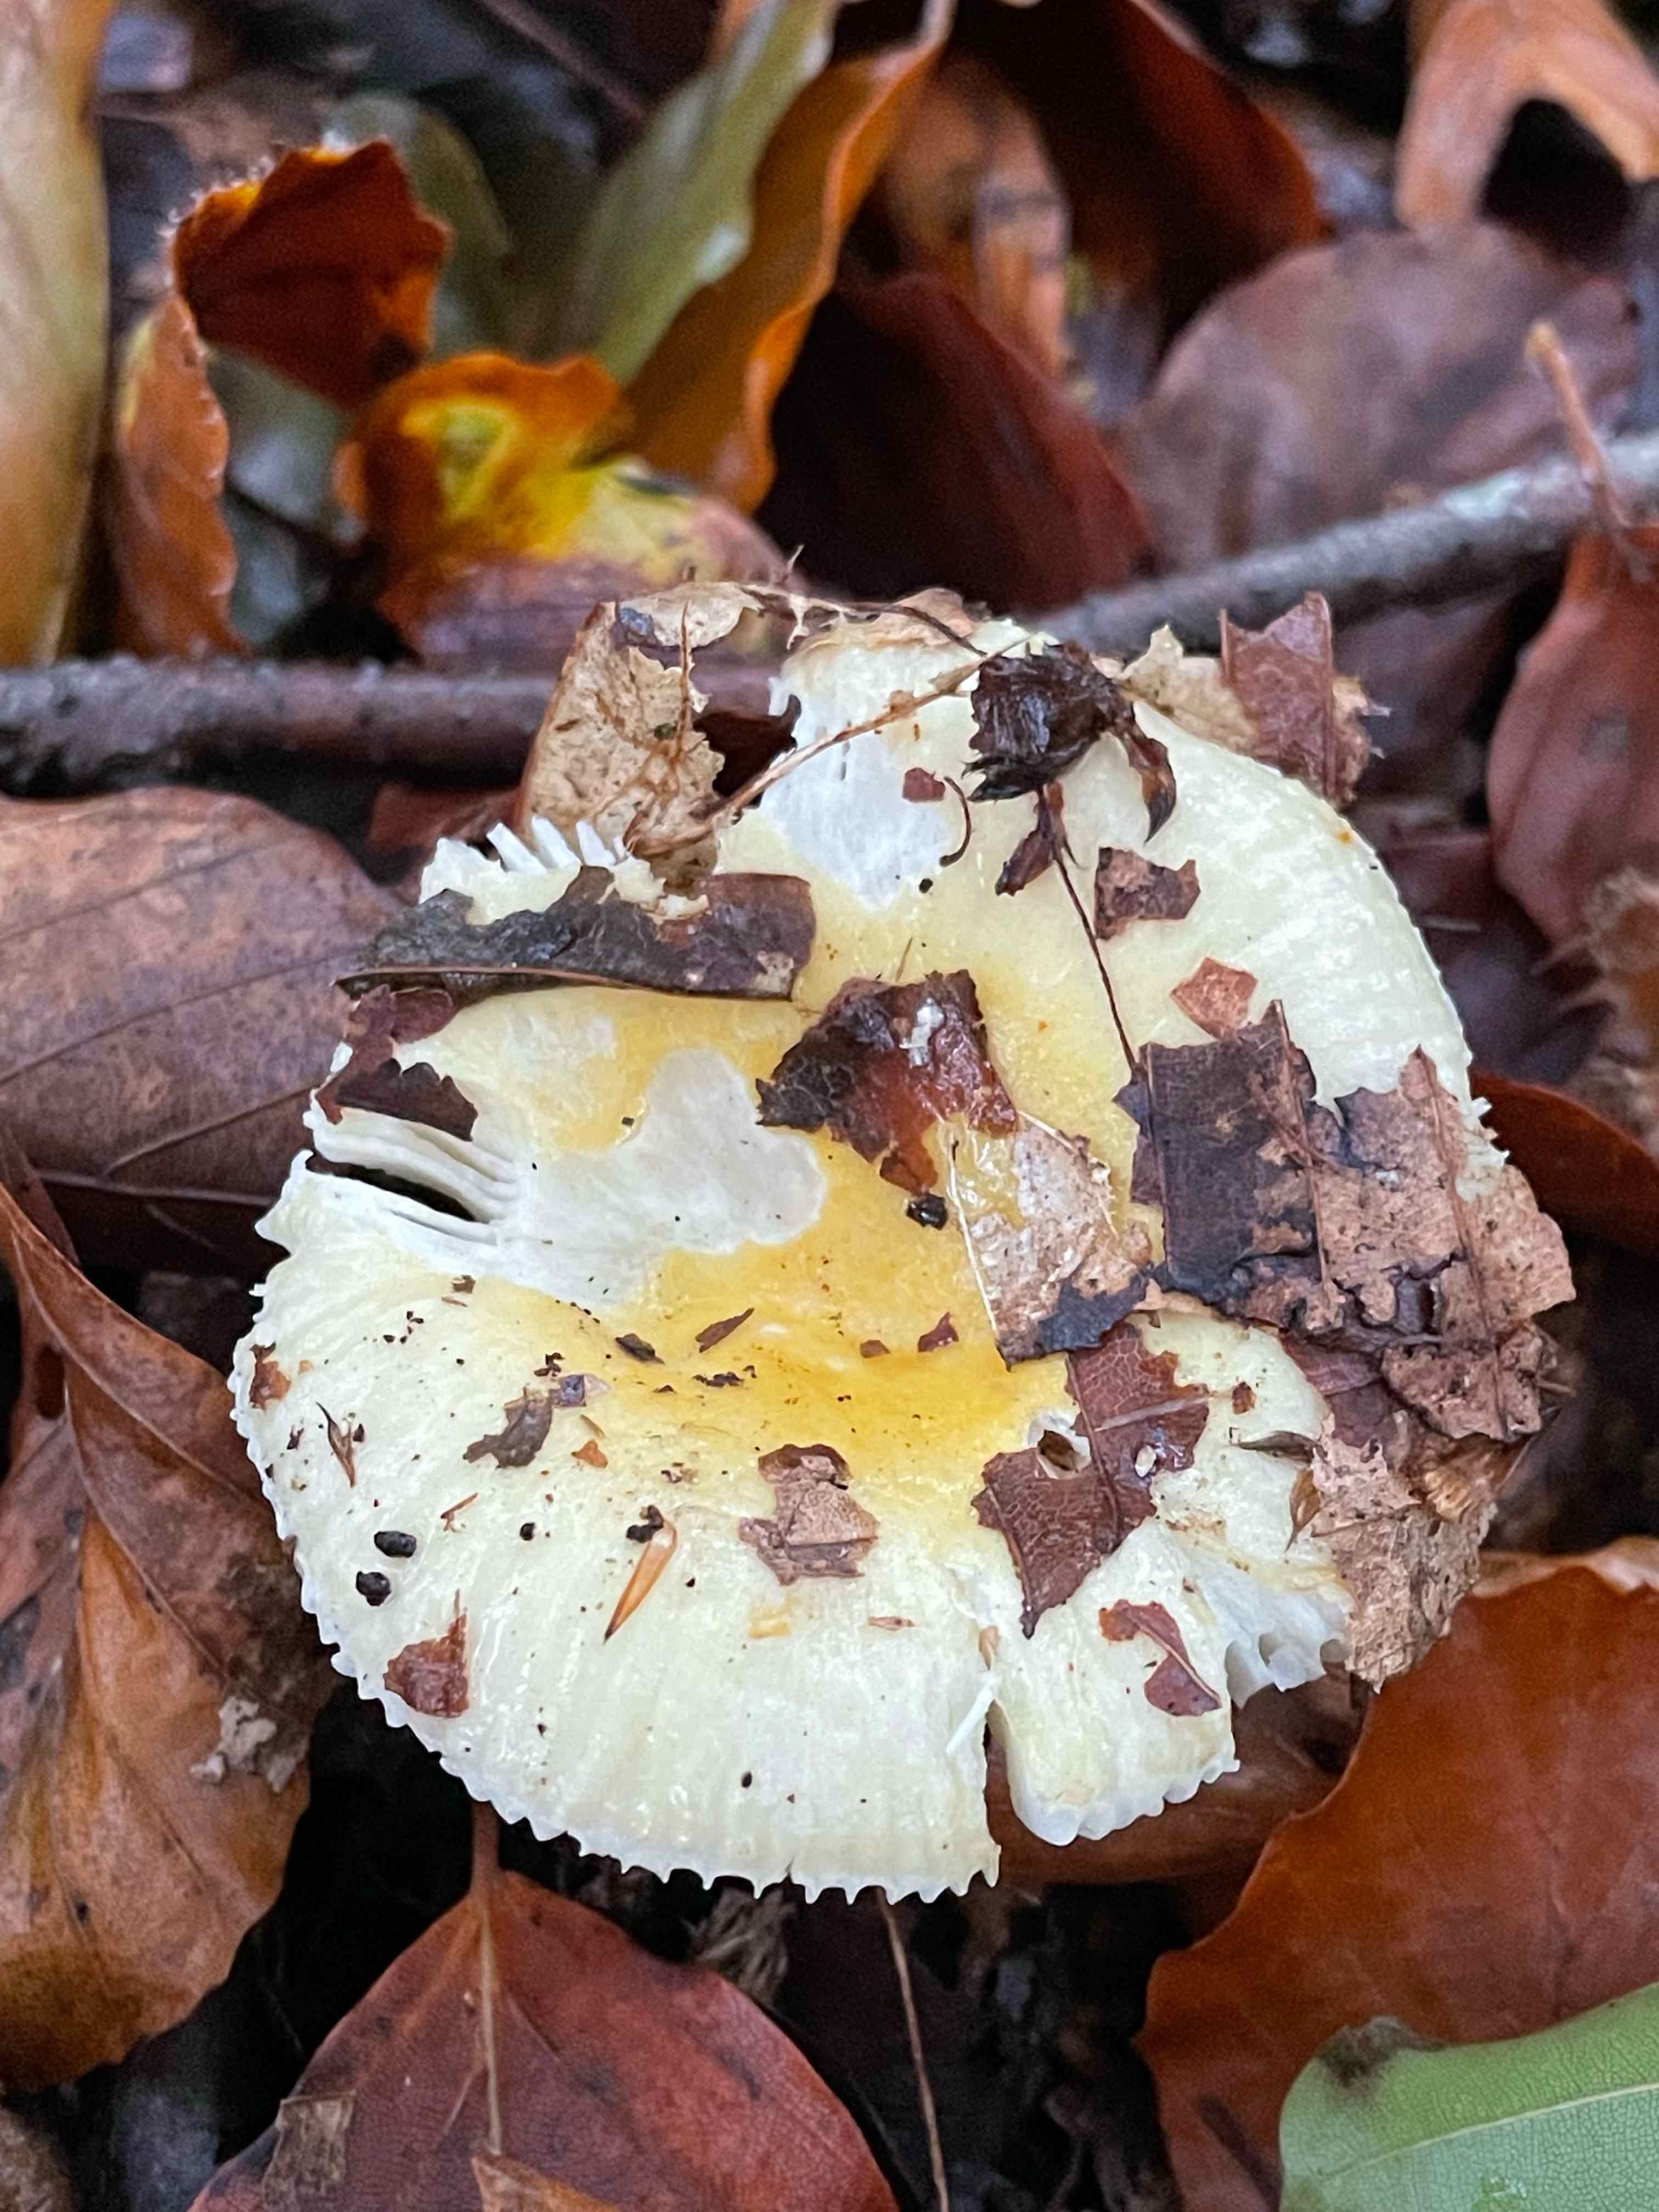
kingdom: Fungi
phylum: Basidiomycota
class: Agaricomycetes
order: Russulales
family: Russulaceae
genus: Russula
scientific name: Russula solaris
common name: sol-skørhat
